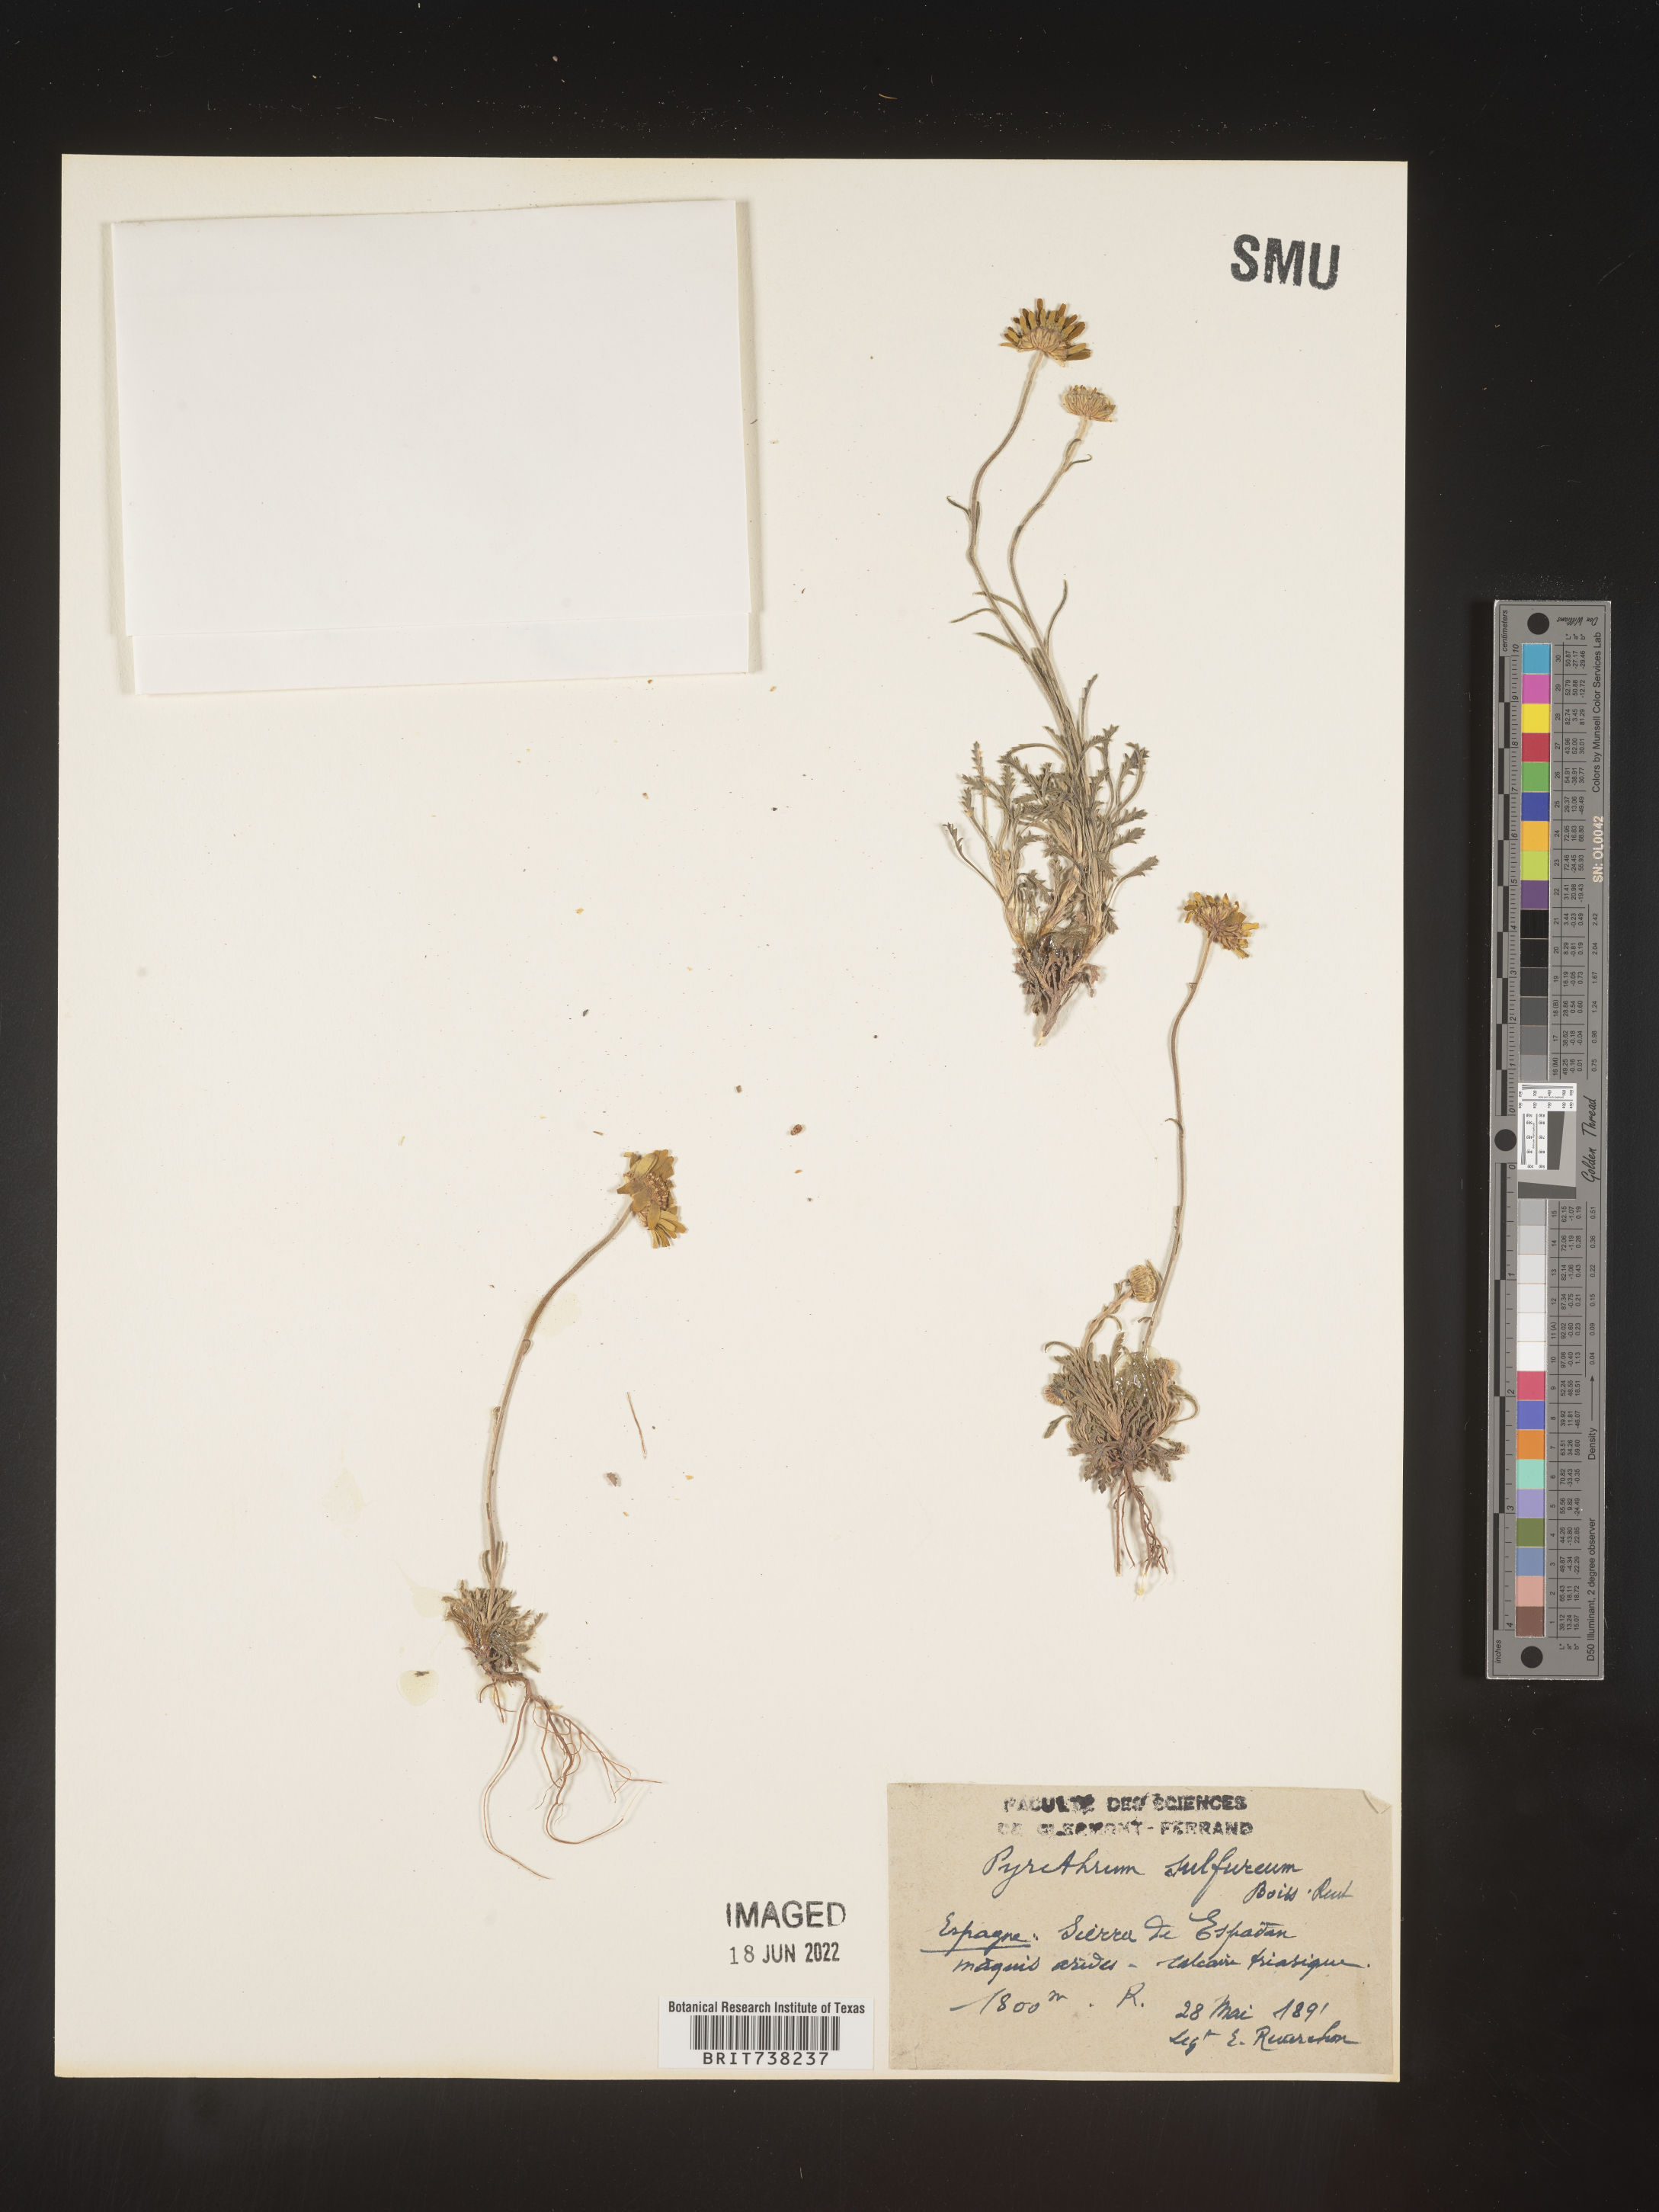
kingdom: Plantae
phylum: Tracheophyta
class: Magnoliopsida
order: Asterales
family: Asteraceae
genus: Pyrethrum
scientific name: Pyrethrum
